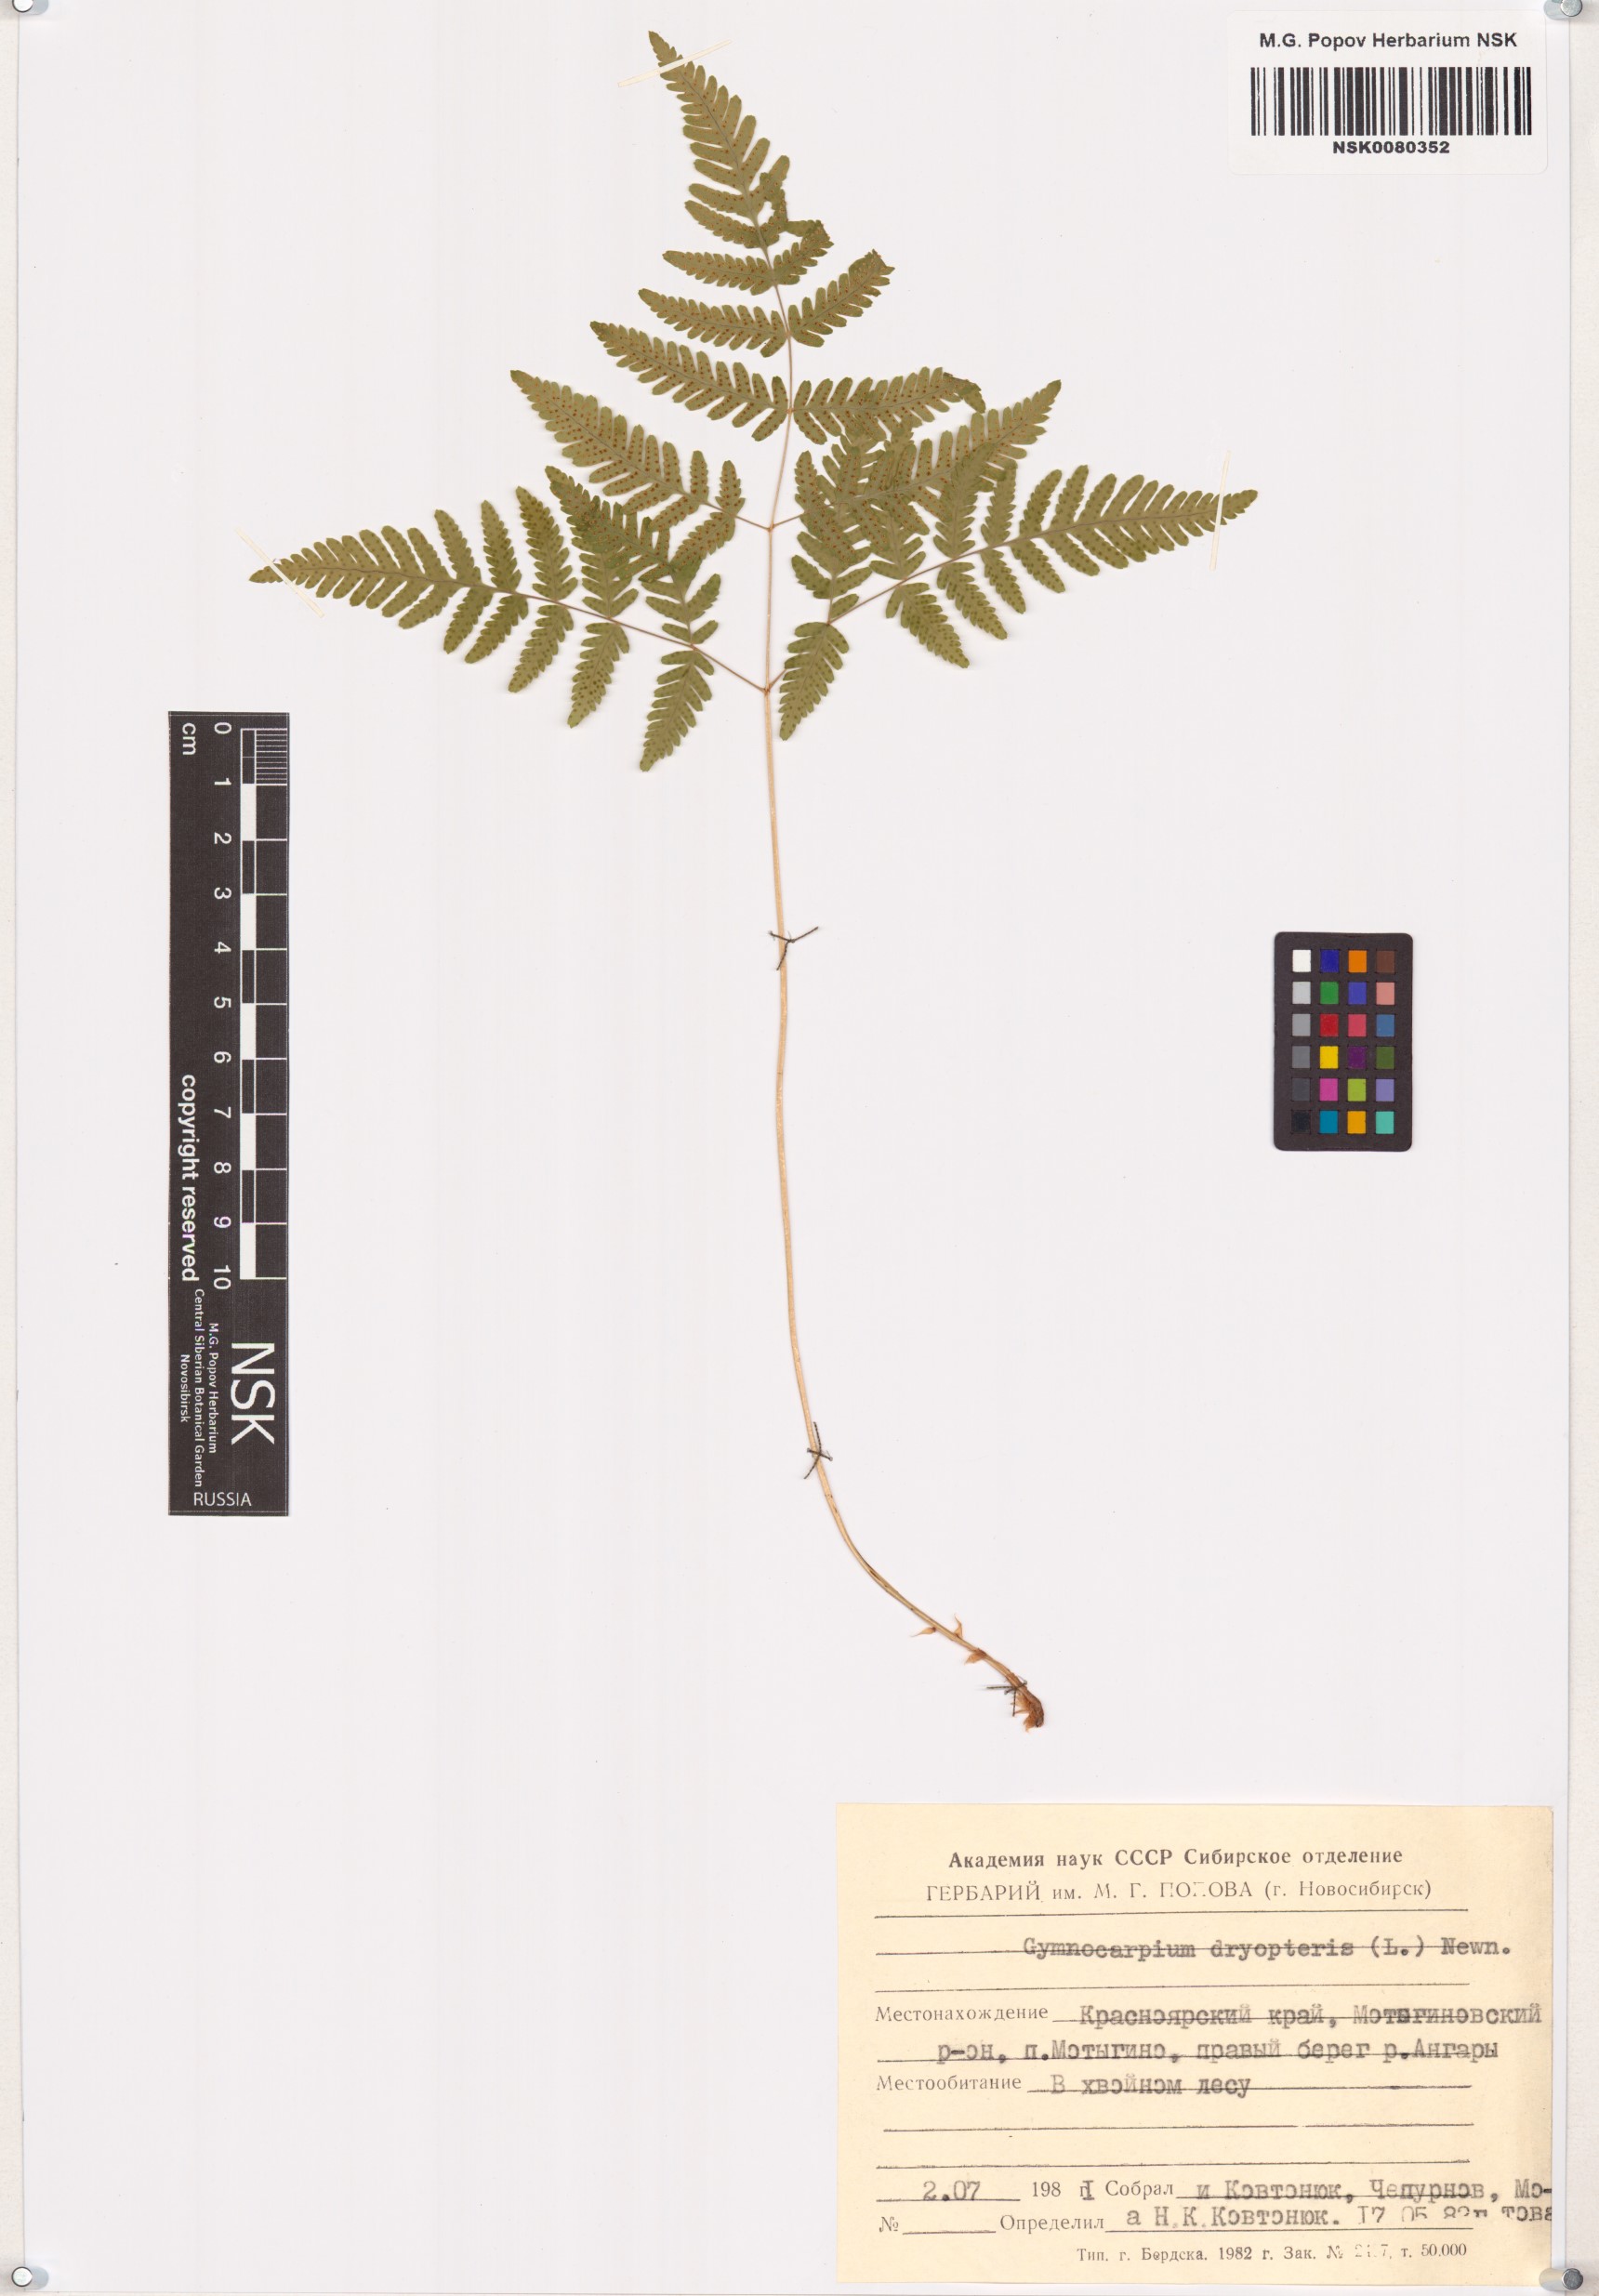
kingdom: Plantae
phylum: Tracheophyta
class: Polypodiopsida
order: Polypodiales
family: Cystopteridaceae
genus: Gymnocarpium
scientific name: Gymnocarpium dryopteris
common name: Oak fern
